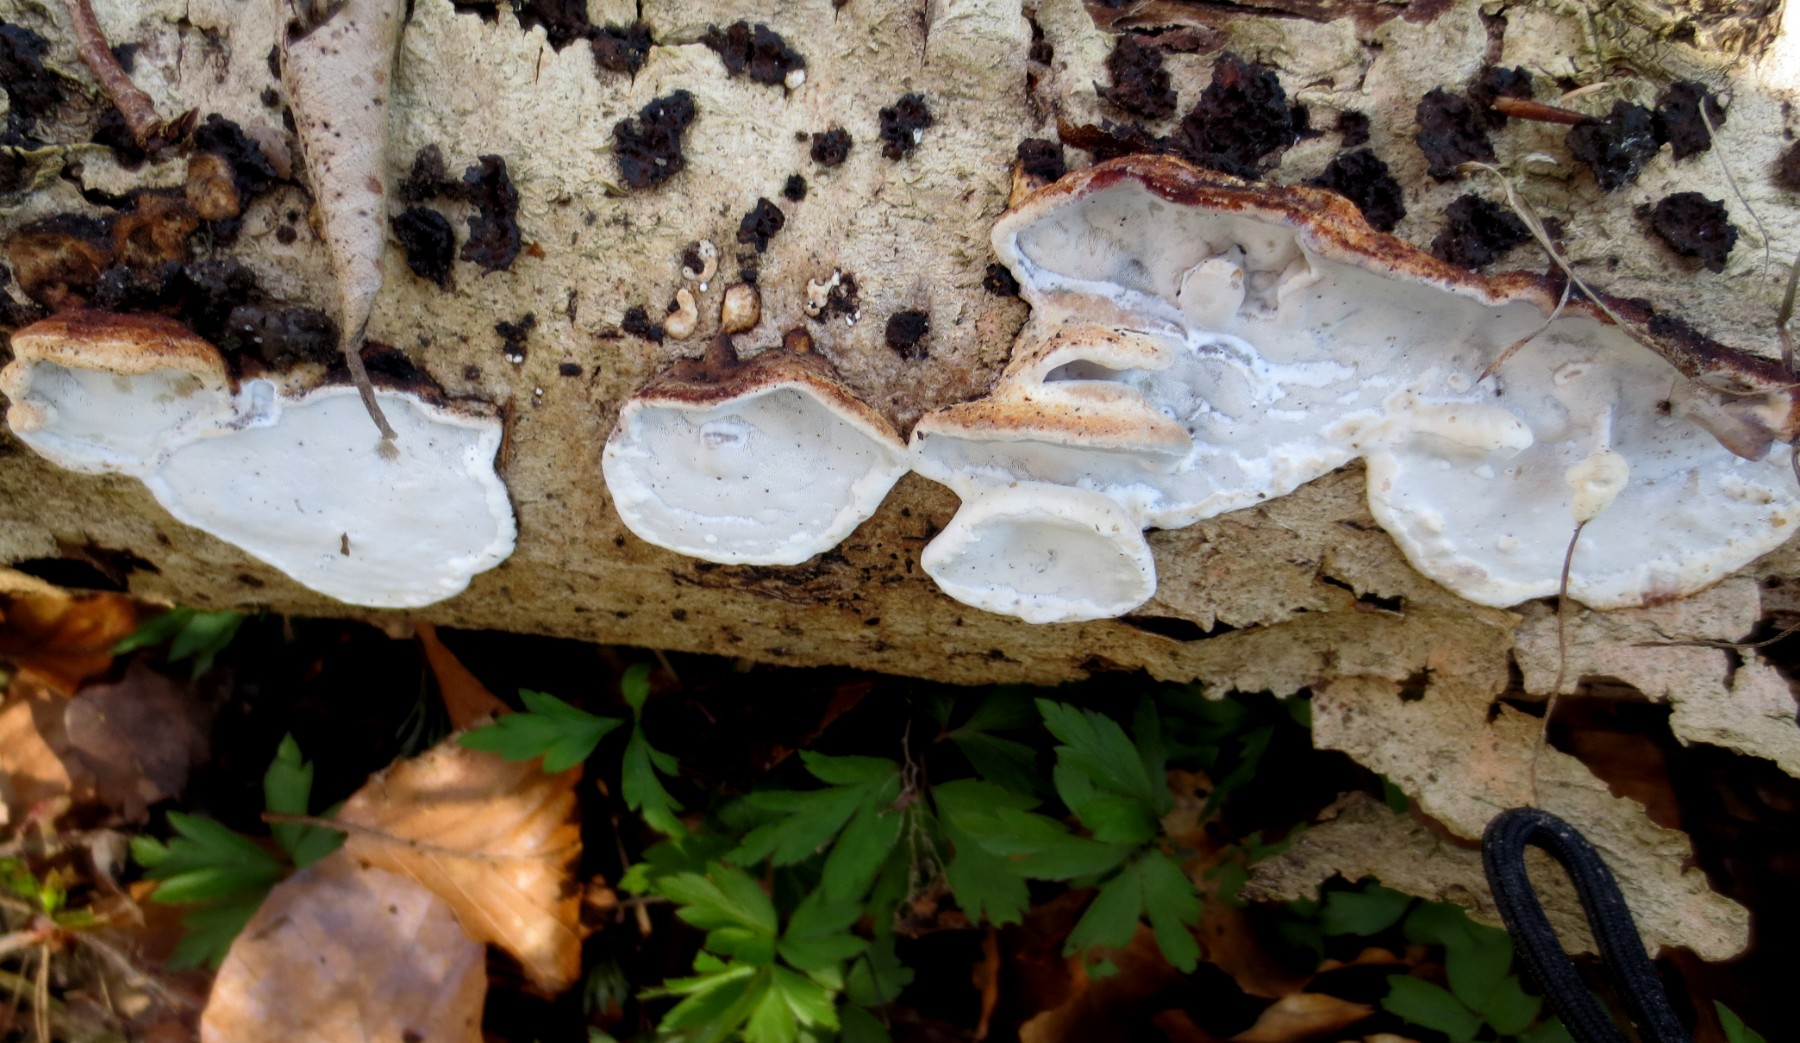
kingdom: Fungi
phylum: Basidiomycota
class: Agaricomycetes
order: Polyporales
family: Incrustoporiaceae
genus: Skeletocutis
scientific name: Skeletocutis nemoralis
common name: stor krystalporesvamp
